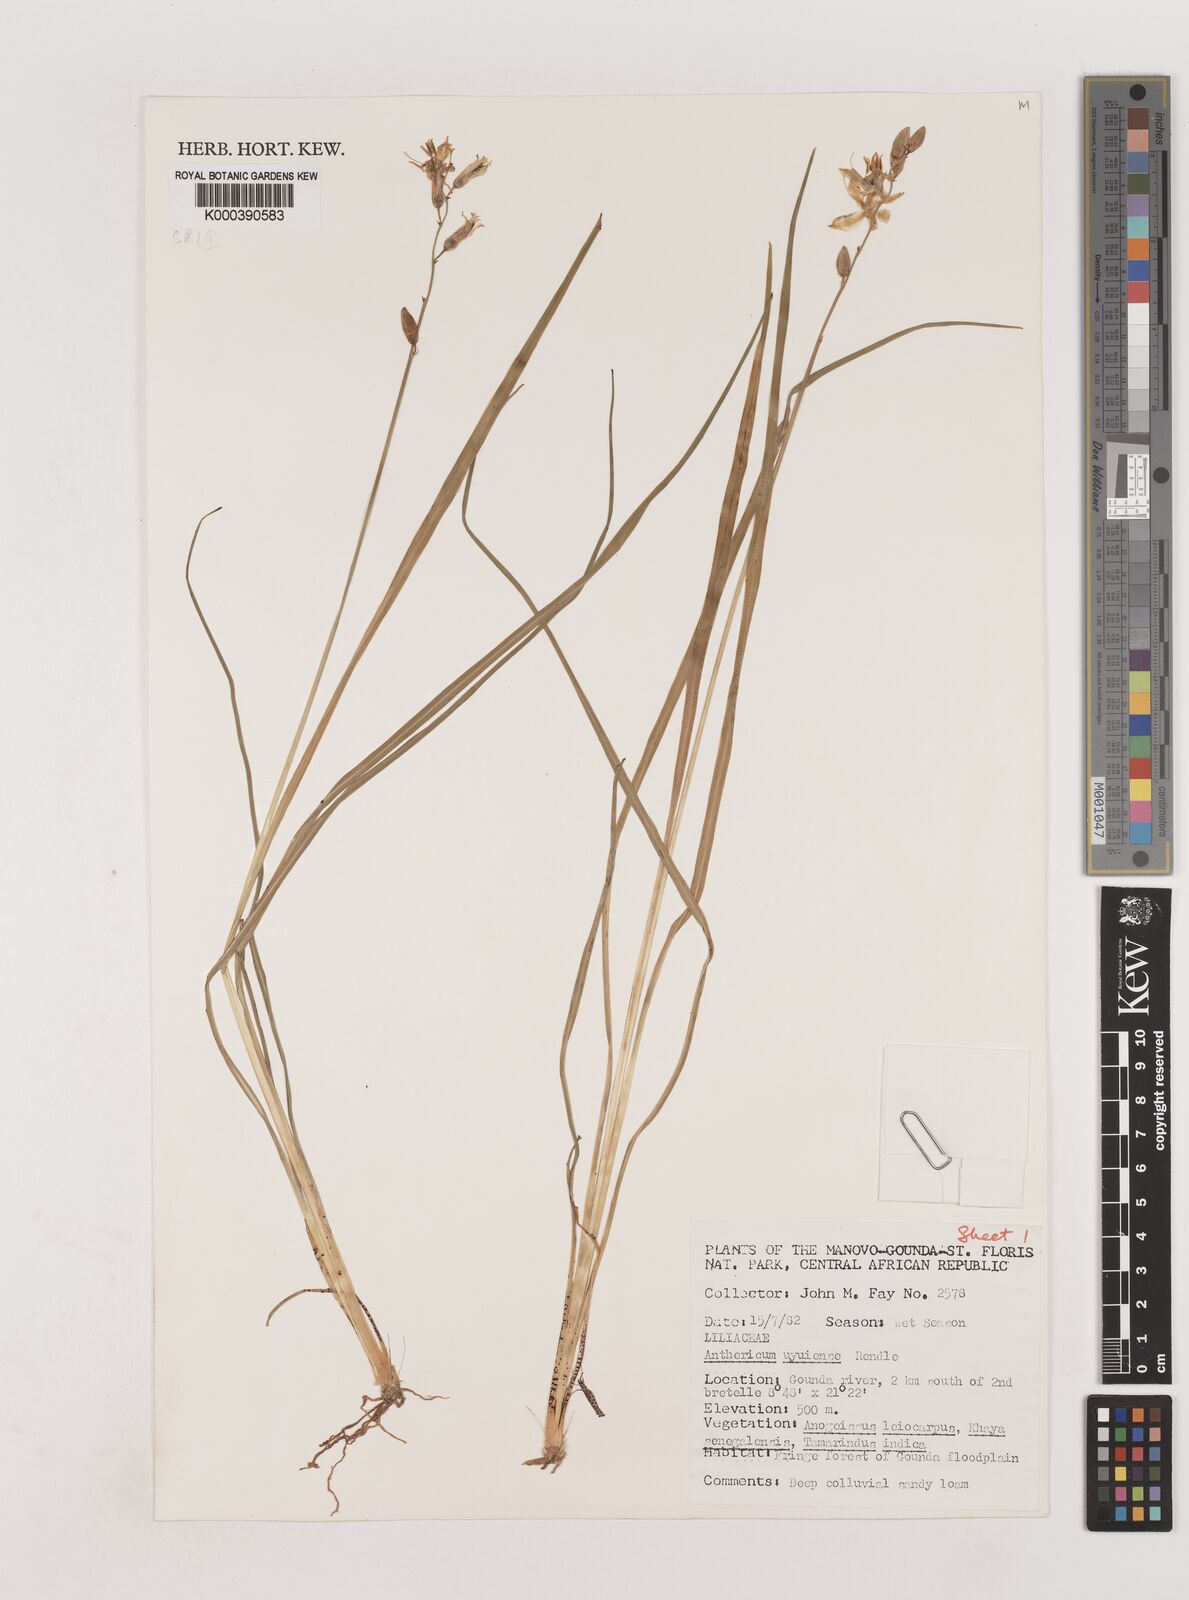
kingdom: Plantae
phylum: Tracheophyta
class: Liliopsida
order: Asparagales
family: Asparagaceae
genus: Chlorophytum
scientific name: Chlorophytum cameronii
